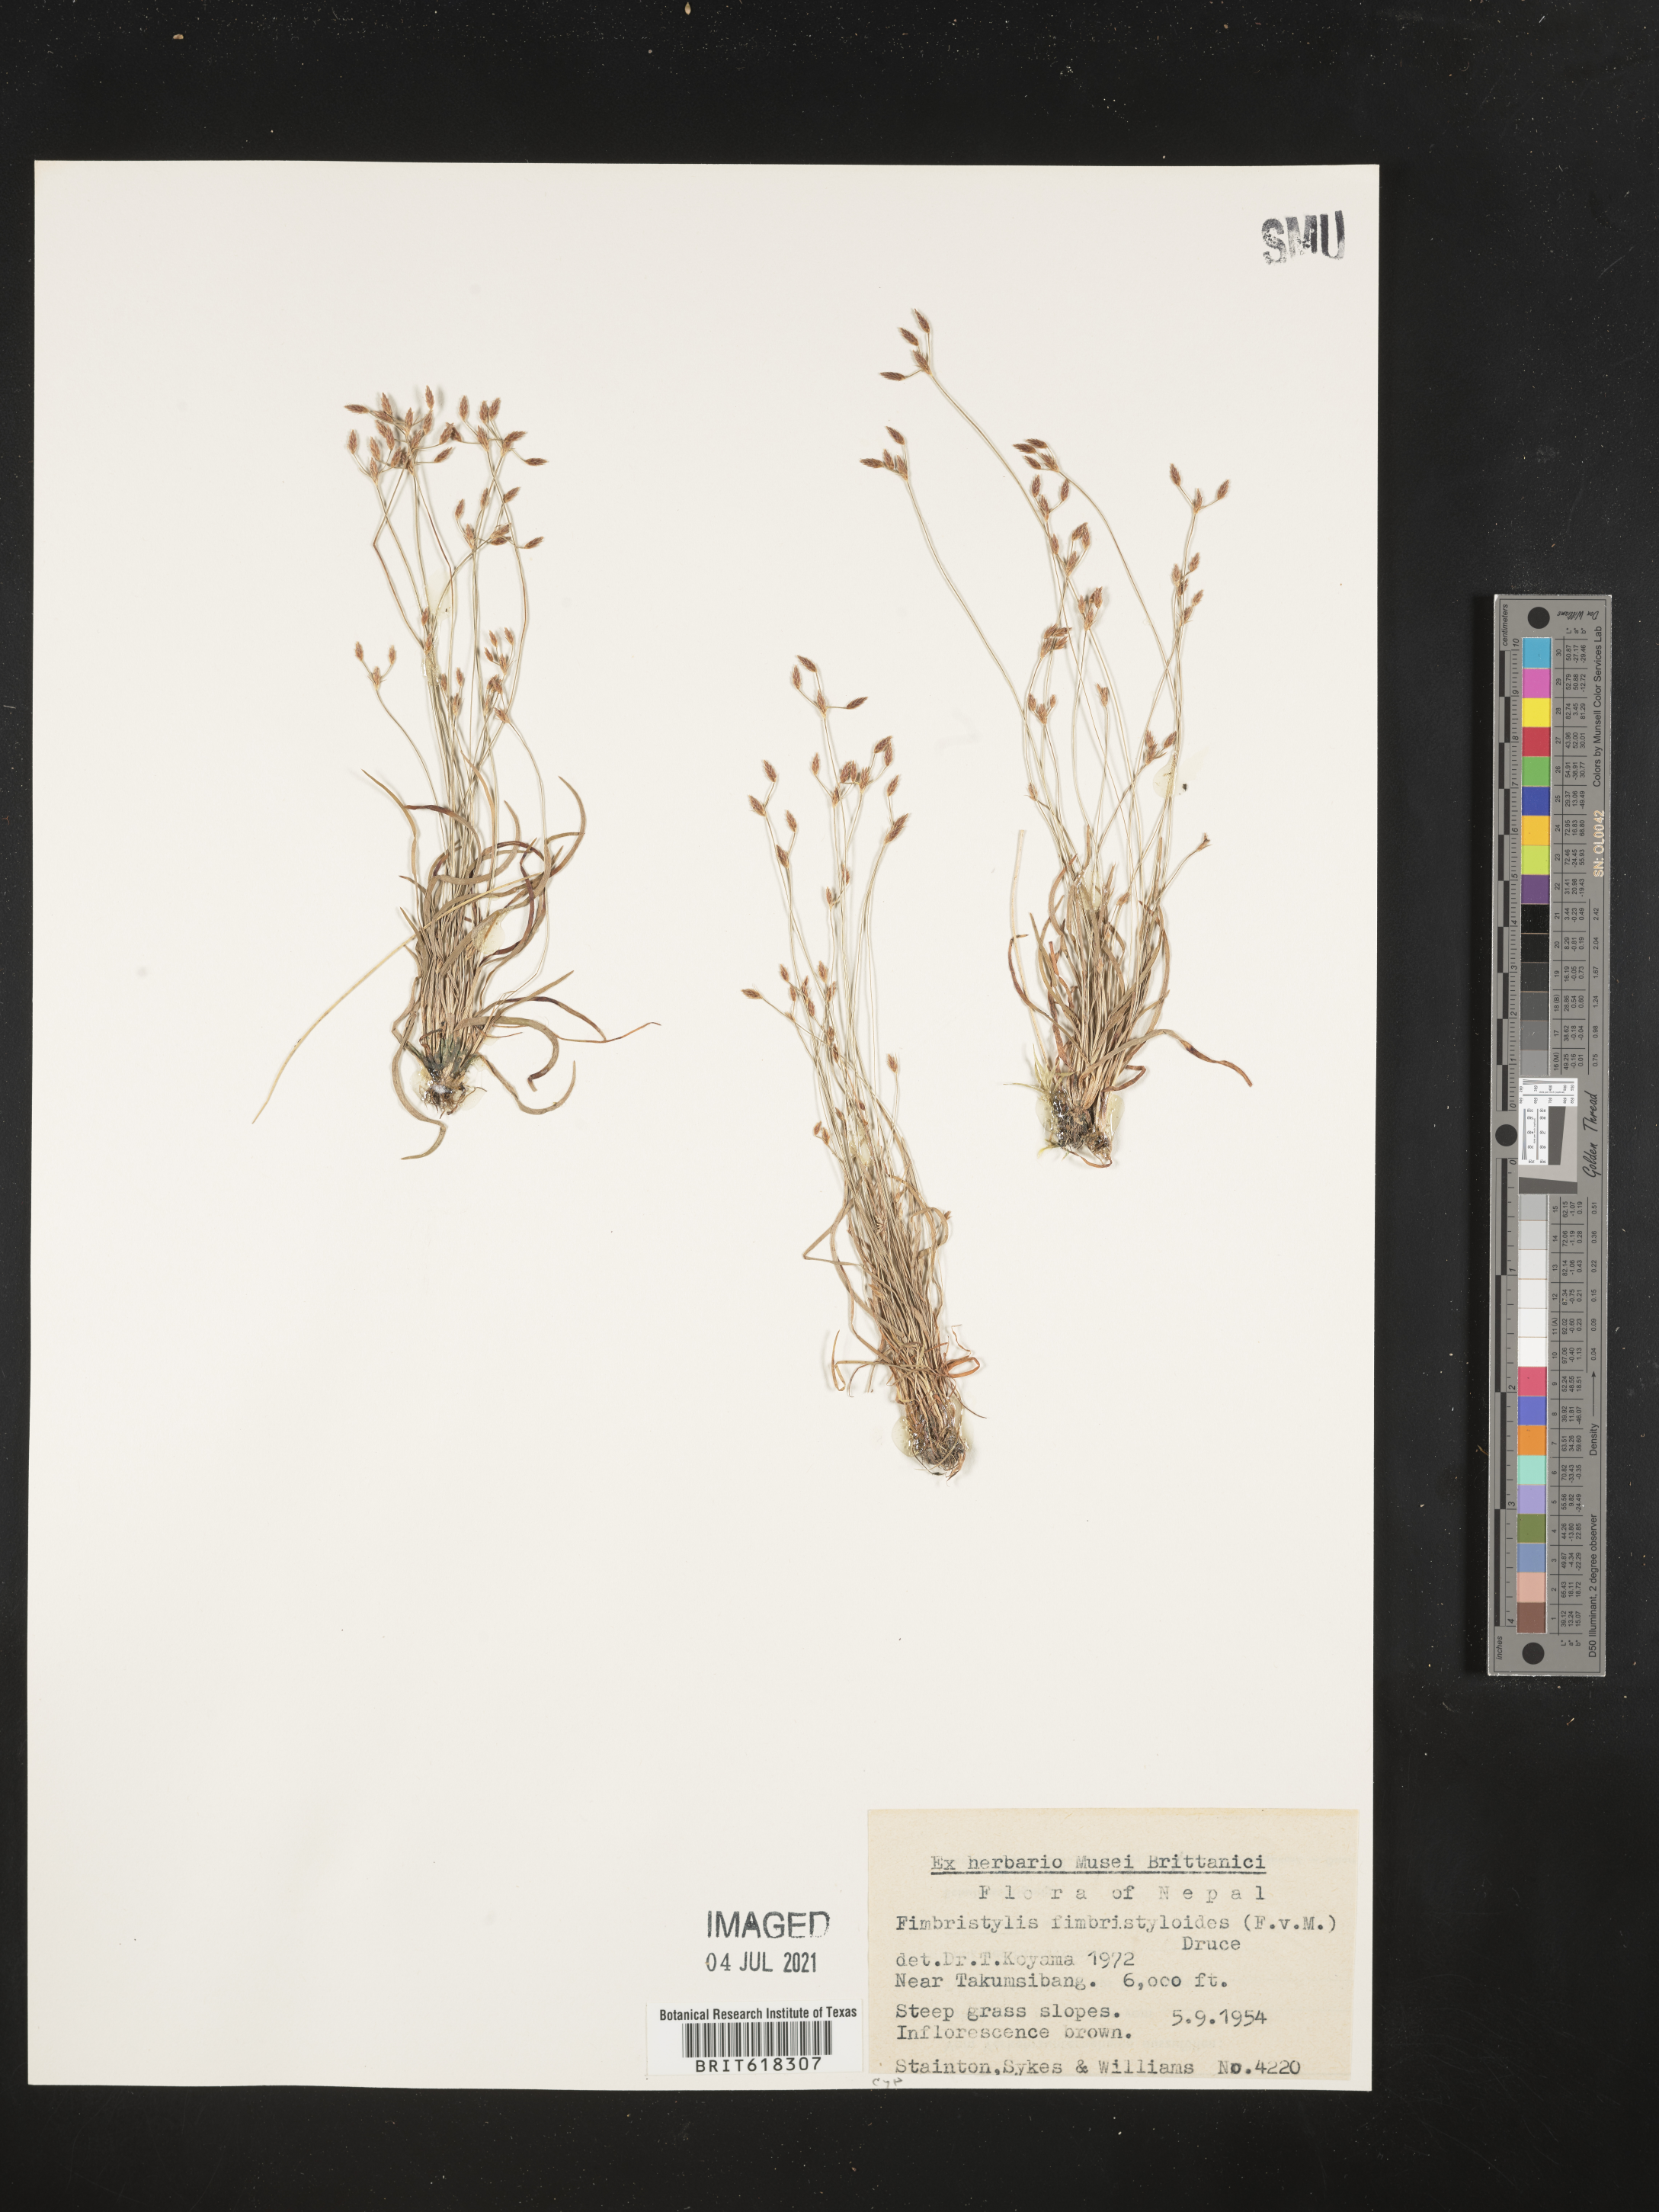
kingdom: Plantae
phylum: Tracheophyta
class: Liliopsida
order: Poales
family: Cyperaceae
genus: Fimbristylis
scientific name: Fimbristylis fimbristyloides
